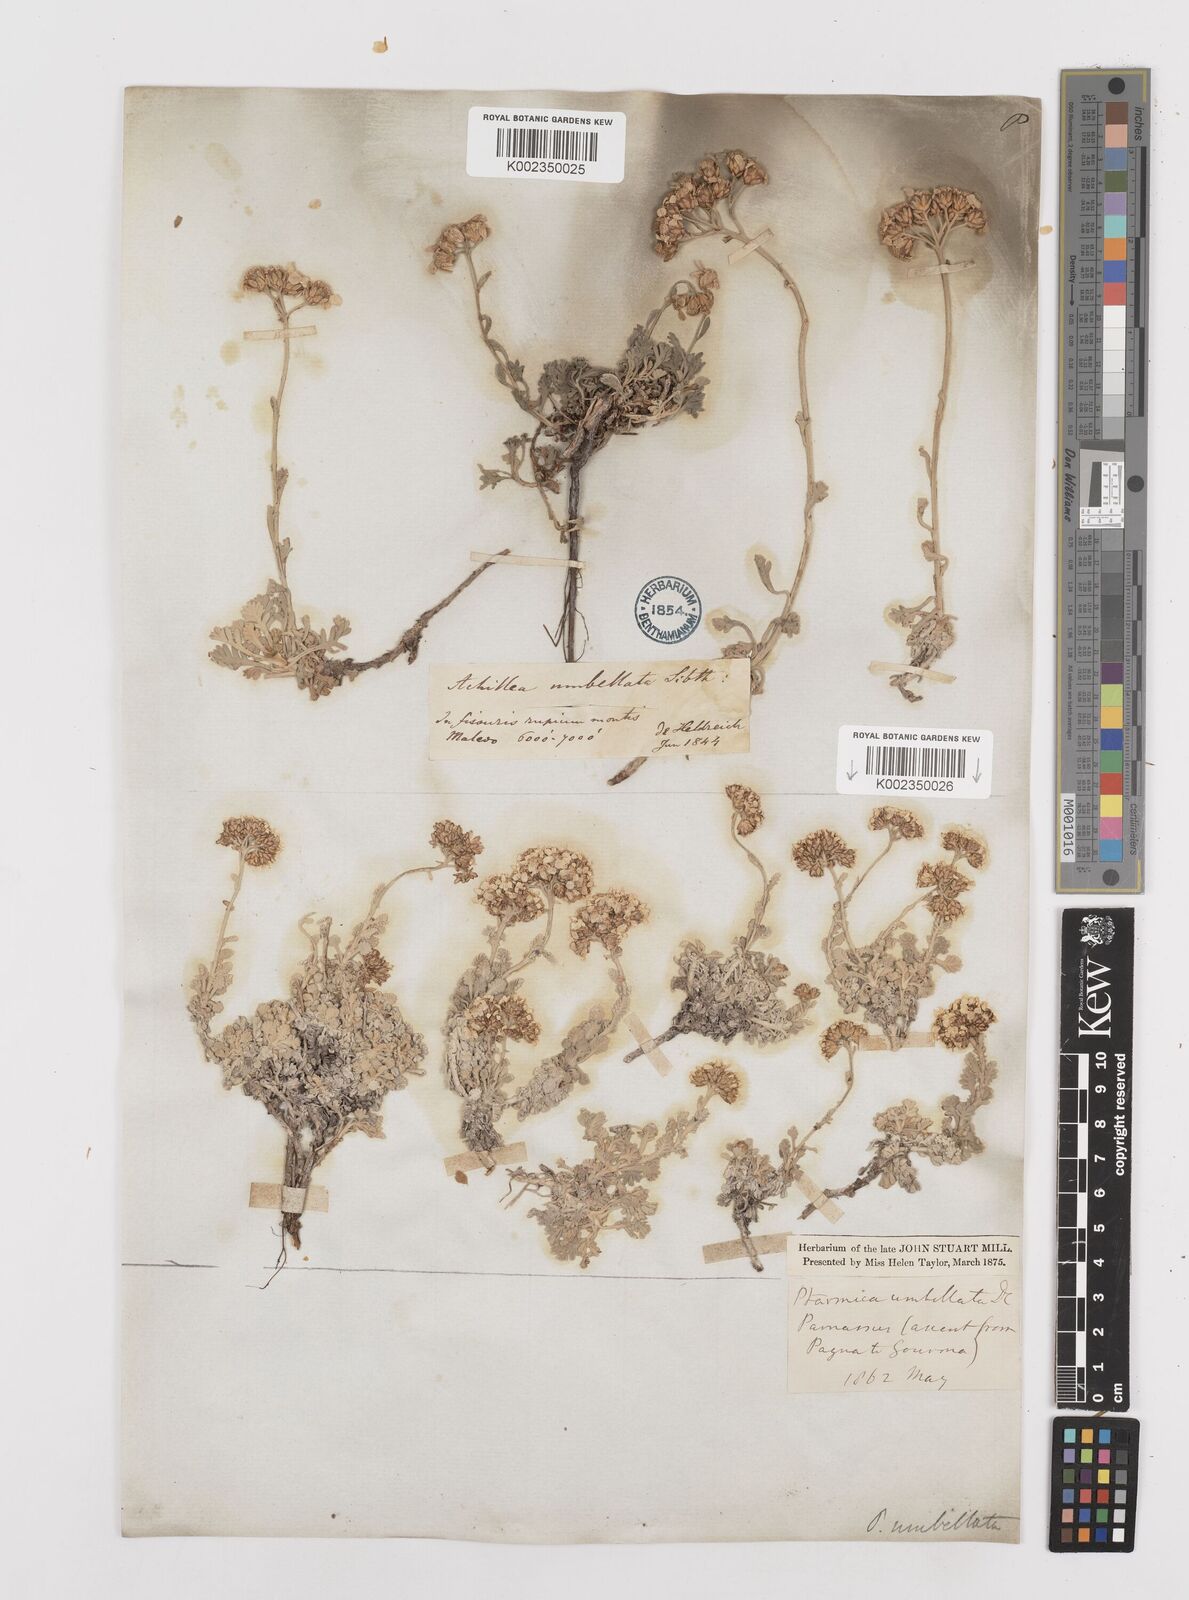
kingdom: Plantae
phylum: Tracheophyta
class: Magnoliopsida
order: Asterales
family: Asteraceae
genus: Achillea
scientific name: Achillea umbellata
